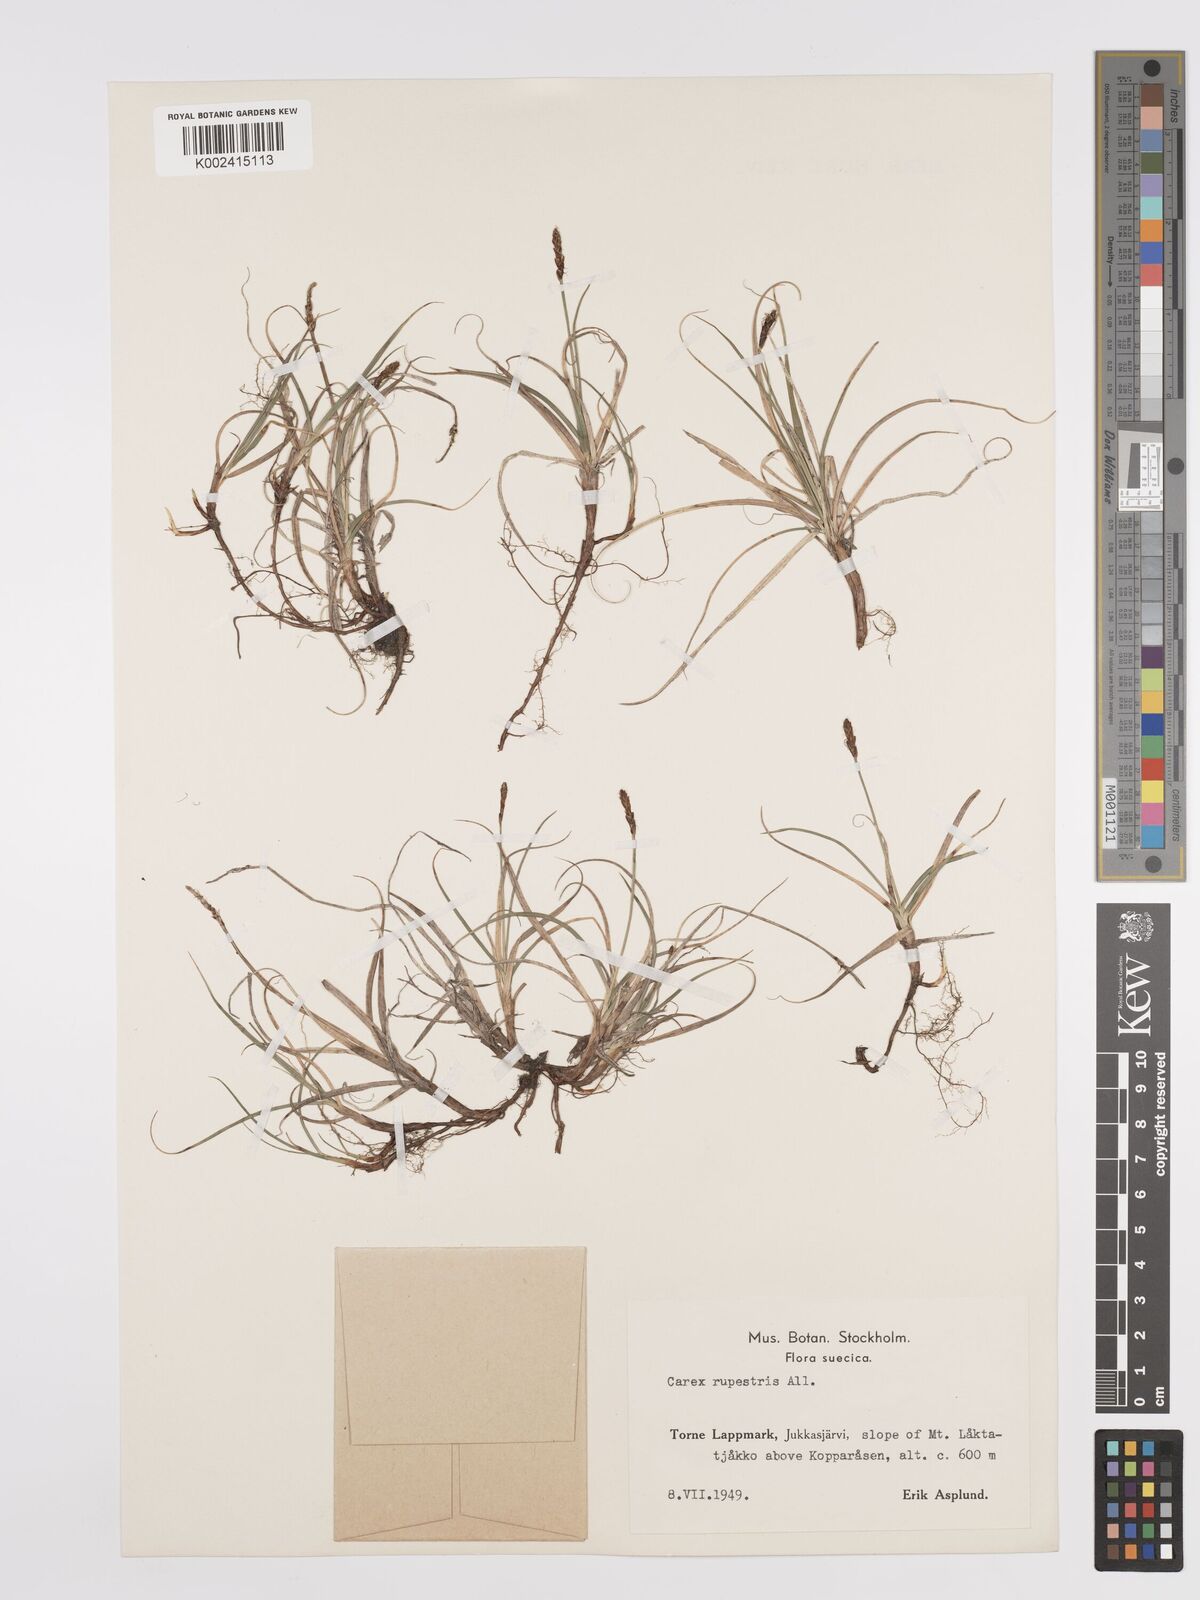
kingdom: Plantae
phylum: Tracheophyta
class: Liliopsida
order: Poales
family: Cyperaceae
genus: Carex
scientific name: Carex rupestris
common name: Rock sedge
